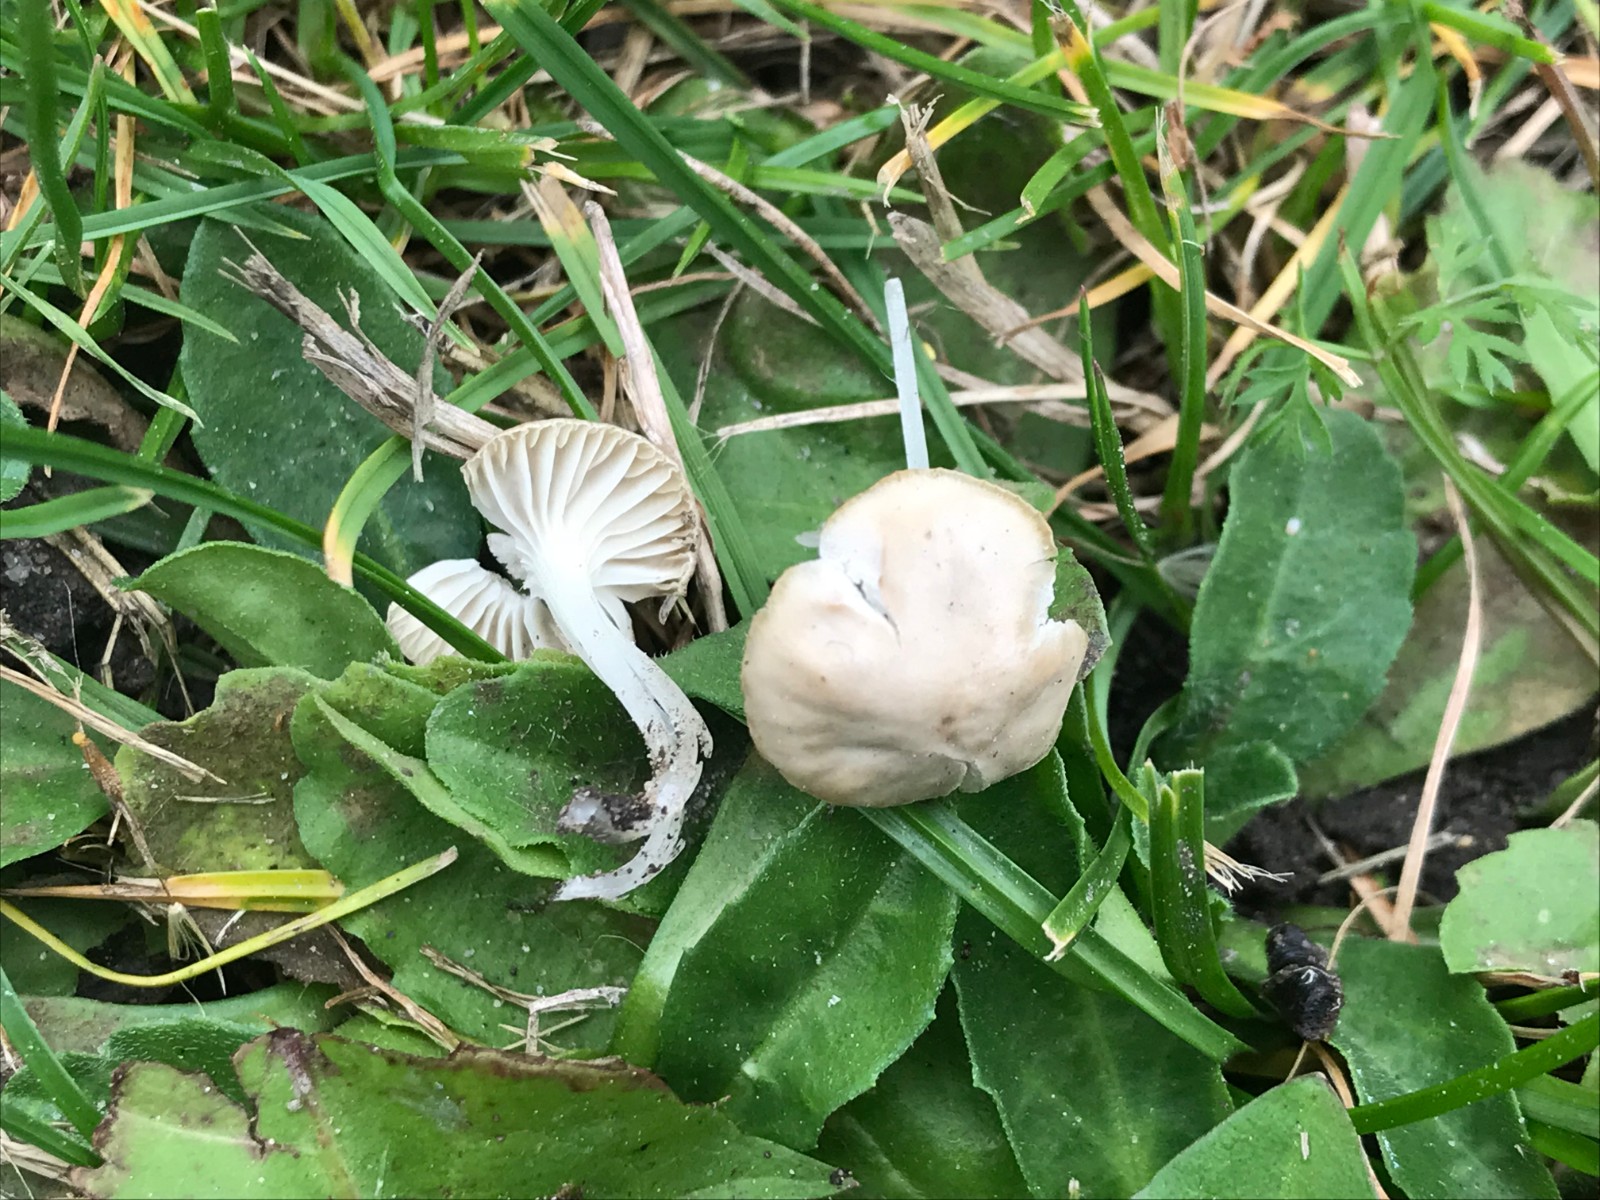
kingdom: Fungi
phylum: Basidiomycota
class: Agaricomycetes
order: Agaricales
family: Mycenaceae
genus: Hemimycena
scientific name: Hemimycena mairei
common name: voks-huesvamp
